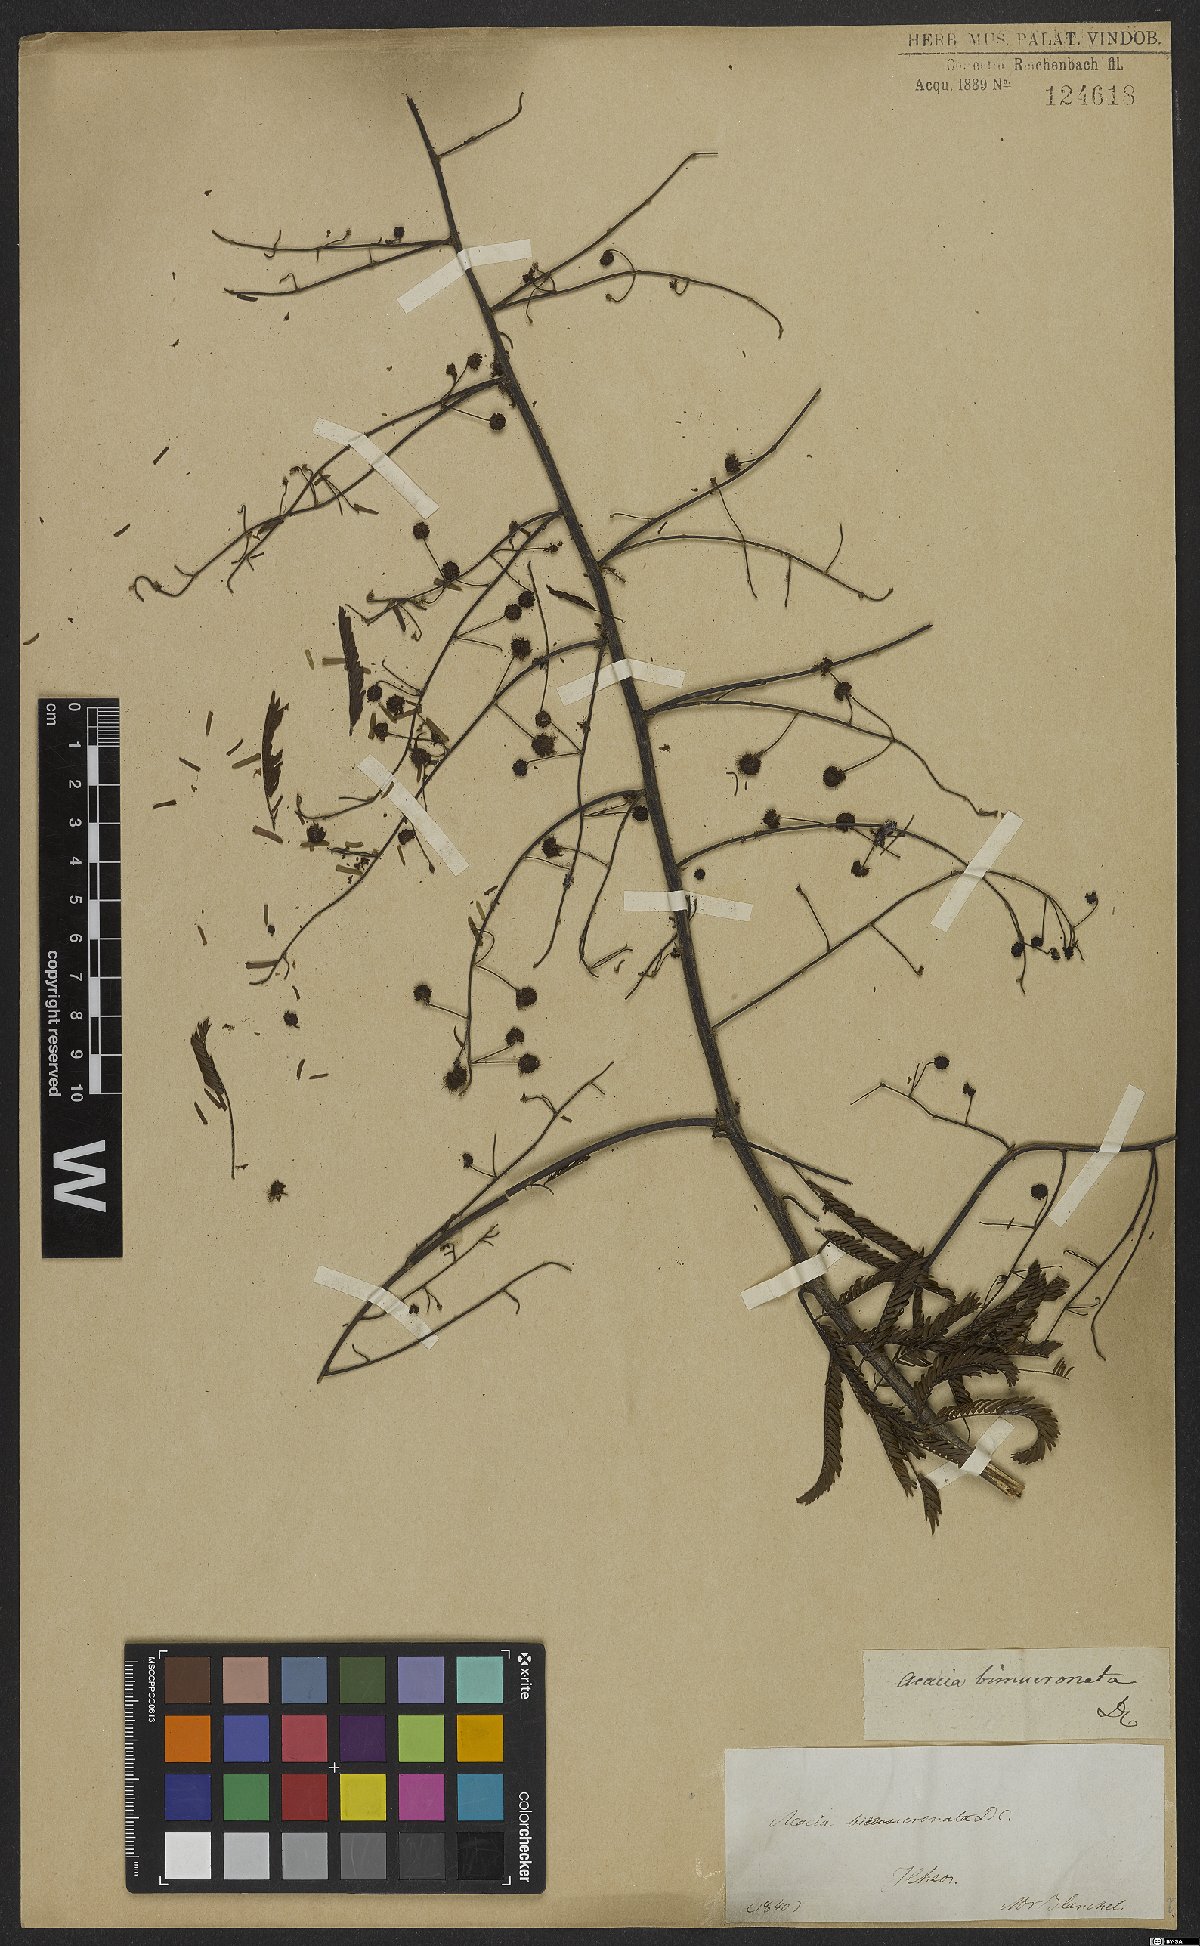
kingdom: Plantae
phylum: Tracheophyta
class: Magnoliopsida
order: Fabales
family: Fabaceae
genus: Mimosa
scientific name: Mimosa bimucronata
